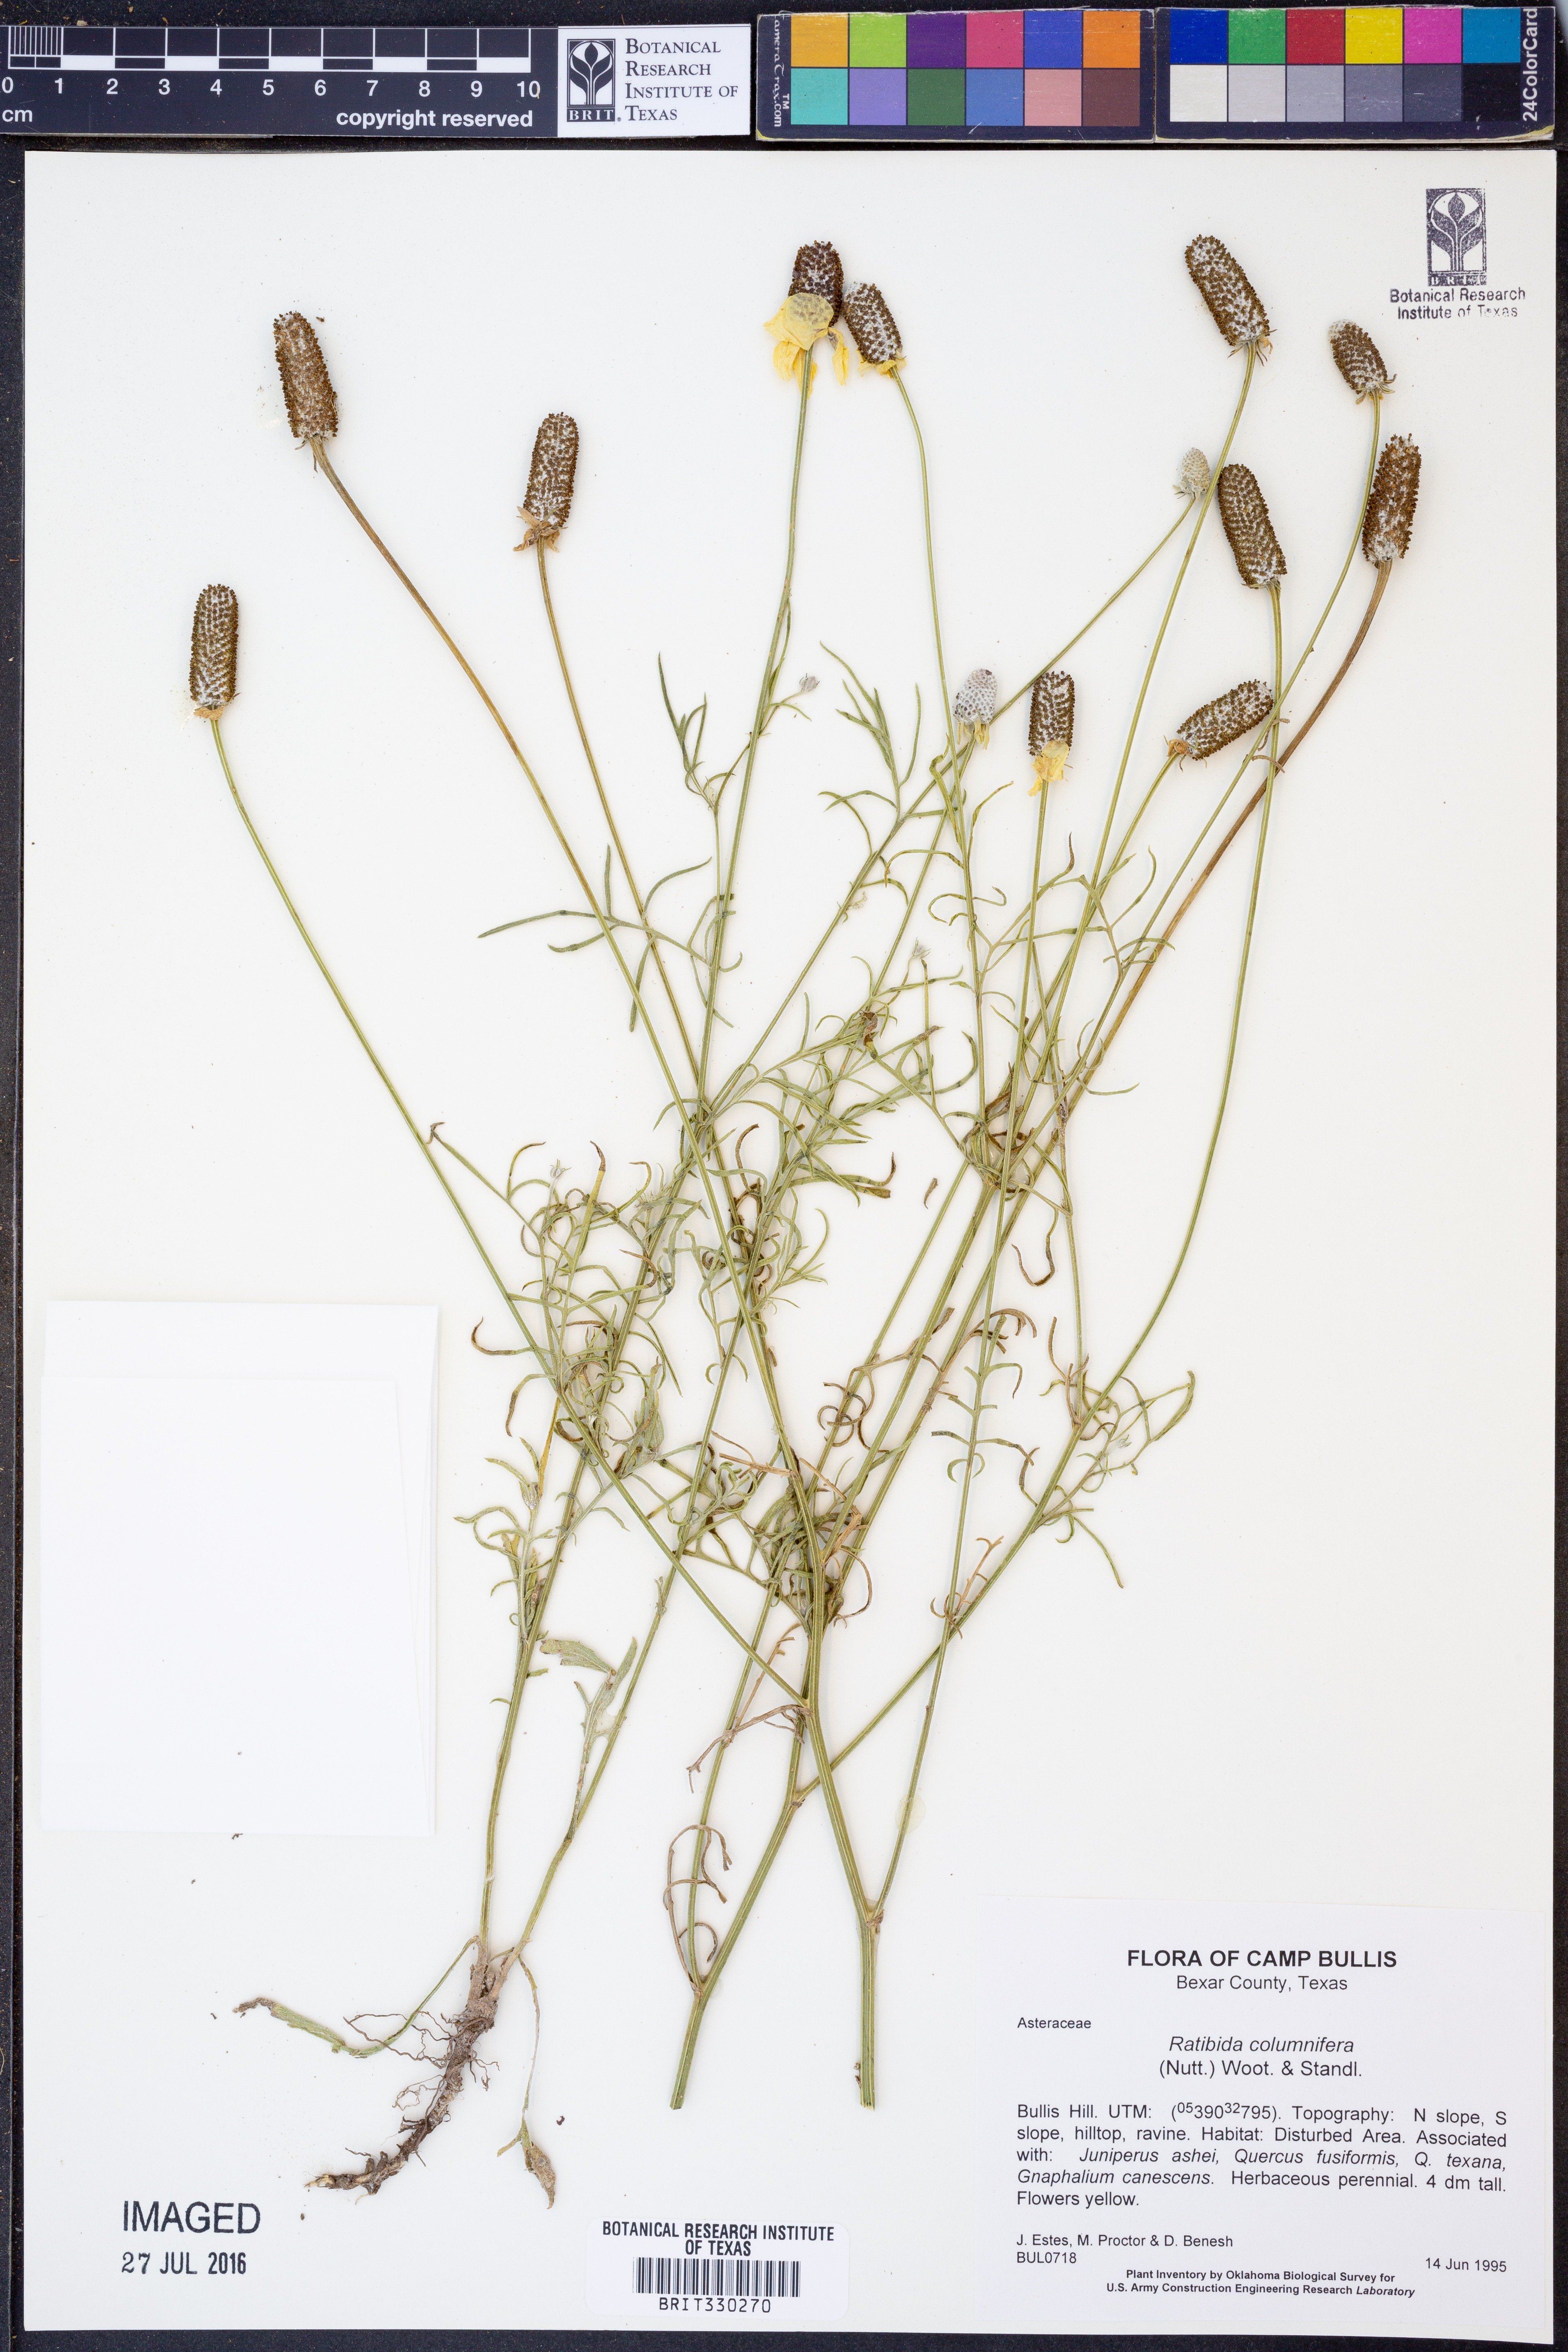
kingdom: Plantae
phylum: Tracheophyta
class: Magnoliopsida
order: Asterales
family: Asteraceae
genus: Ratibida
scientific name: Ratibida columnifera
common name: Prairie coneflower
